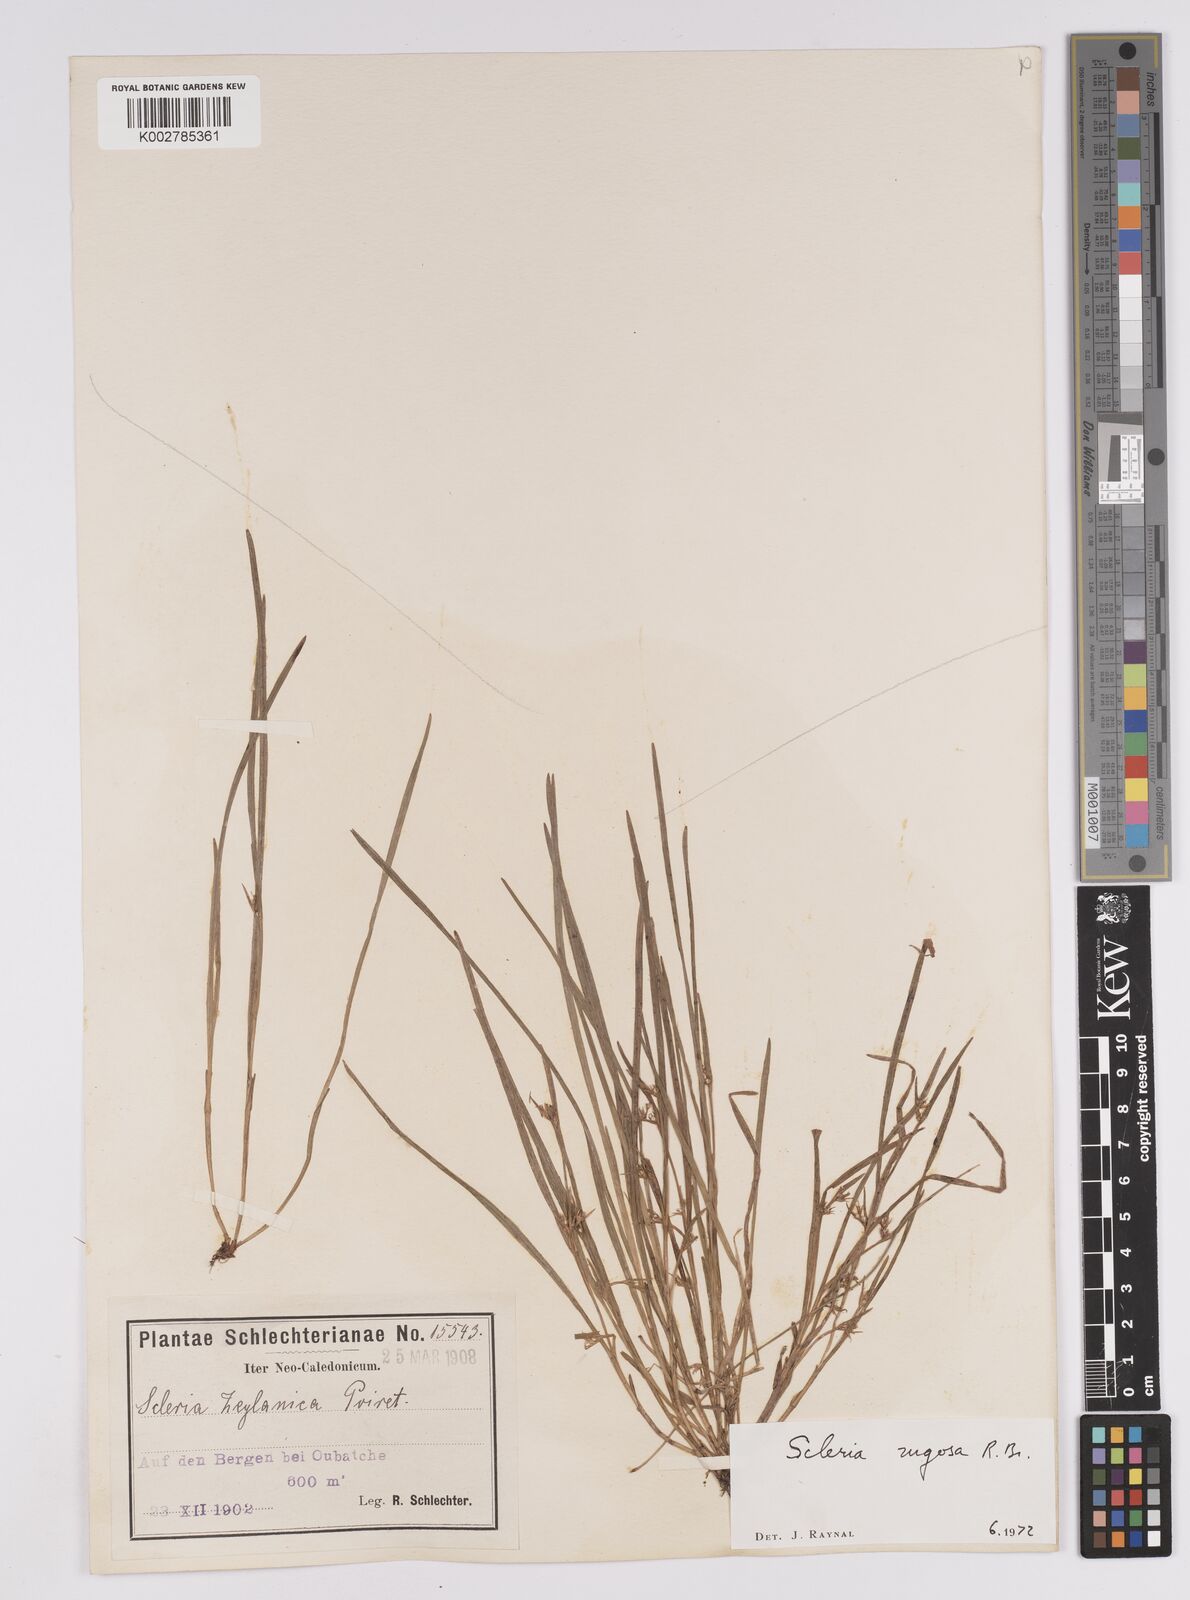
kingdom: Plantae
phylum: Tracheophyta
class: Liliopsida
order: Poales
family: Cyperaceae
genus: Scleria
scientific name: Scleria rugosa
